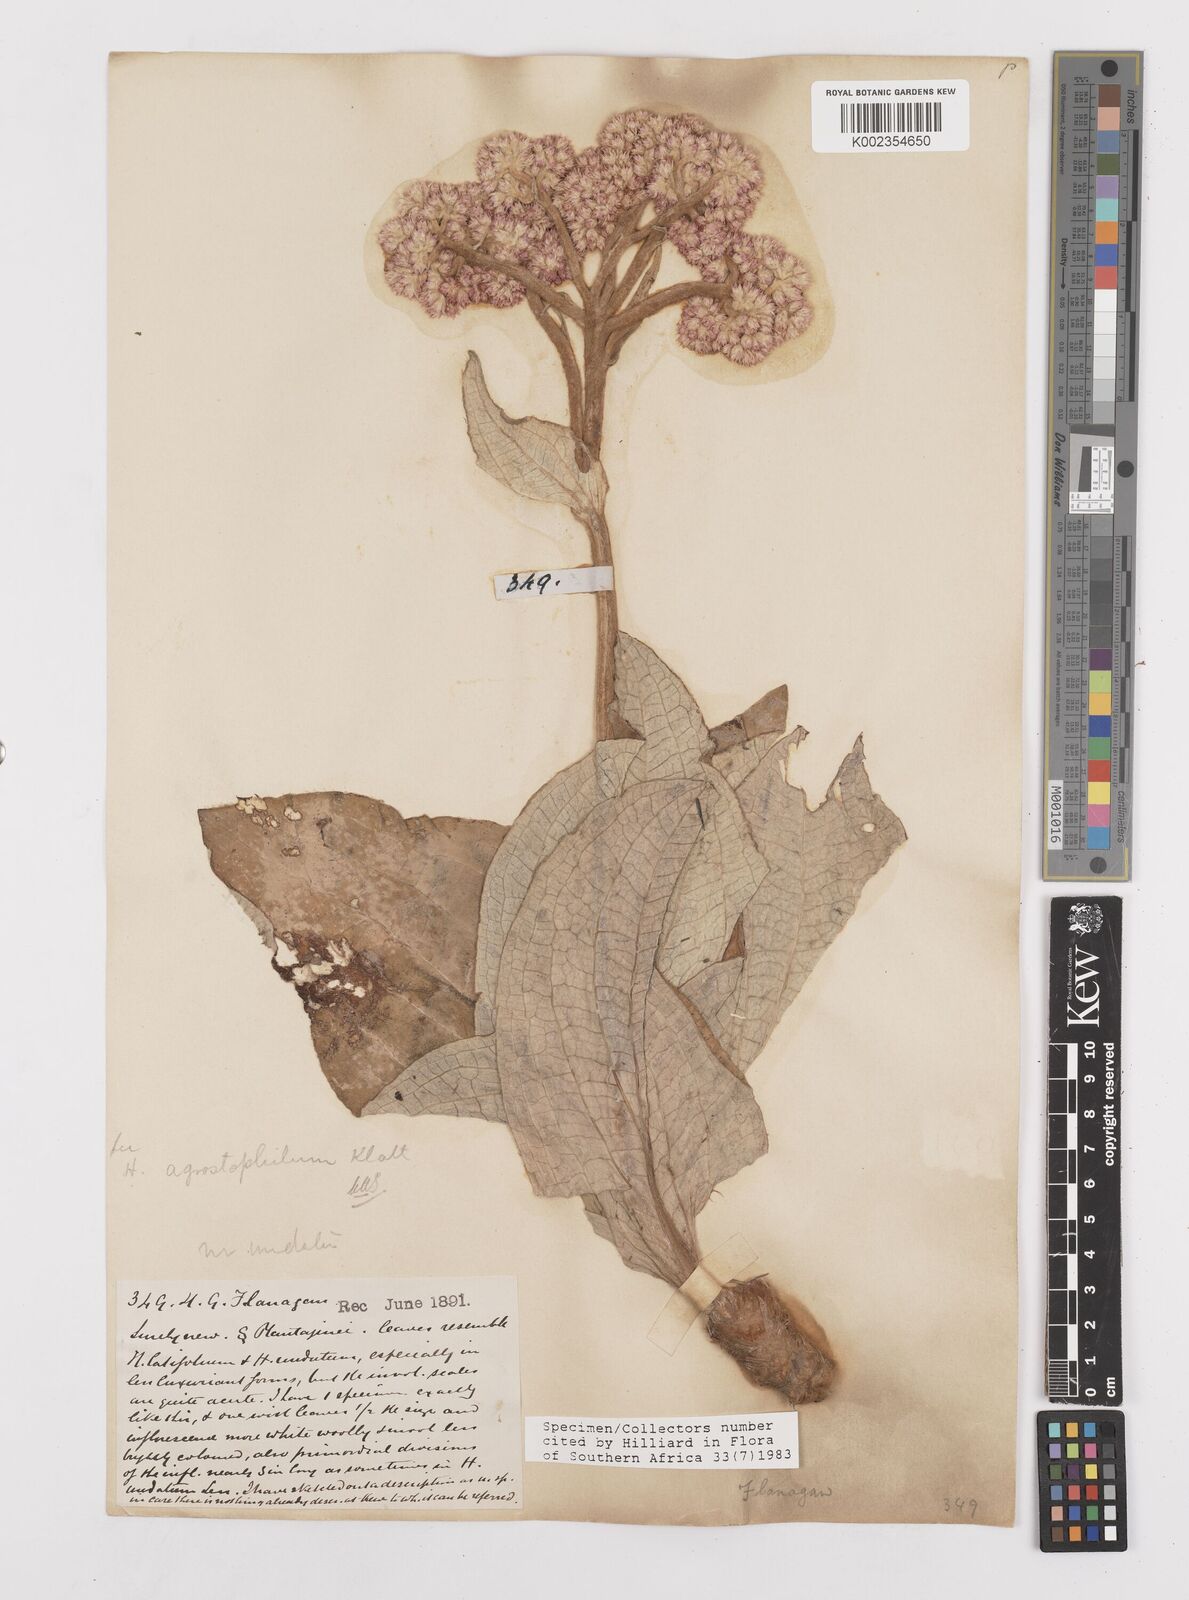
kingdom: Plantae
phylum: Tracheophyta
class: Magnoliopsida
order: Asterales
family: Asteraceae
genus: Helichrysum
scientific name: Helichrysum griseum
